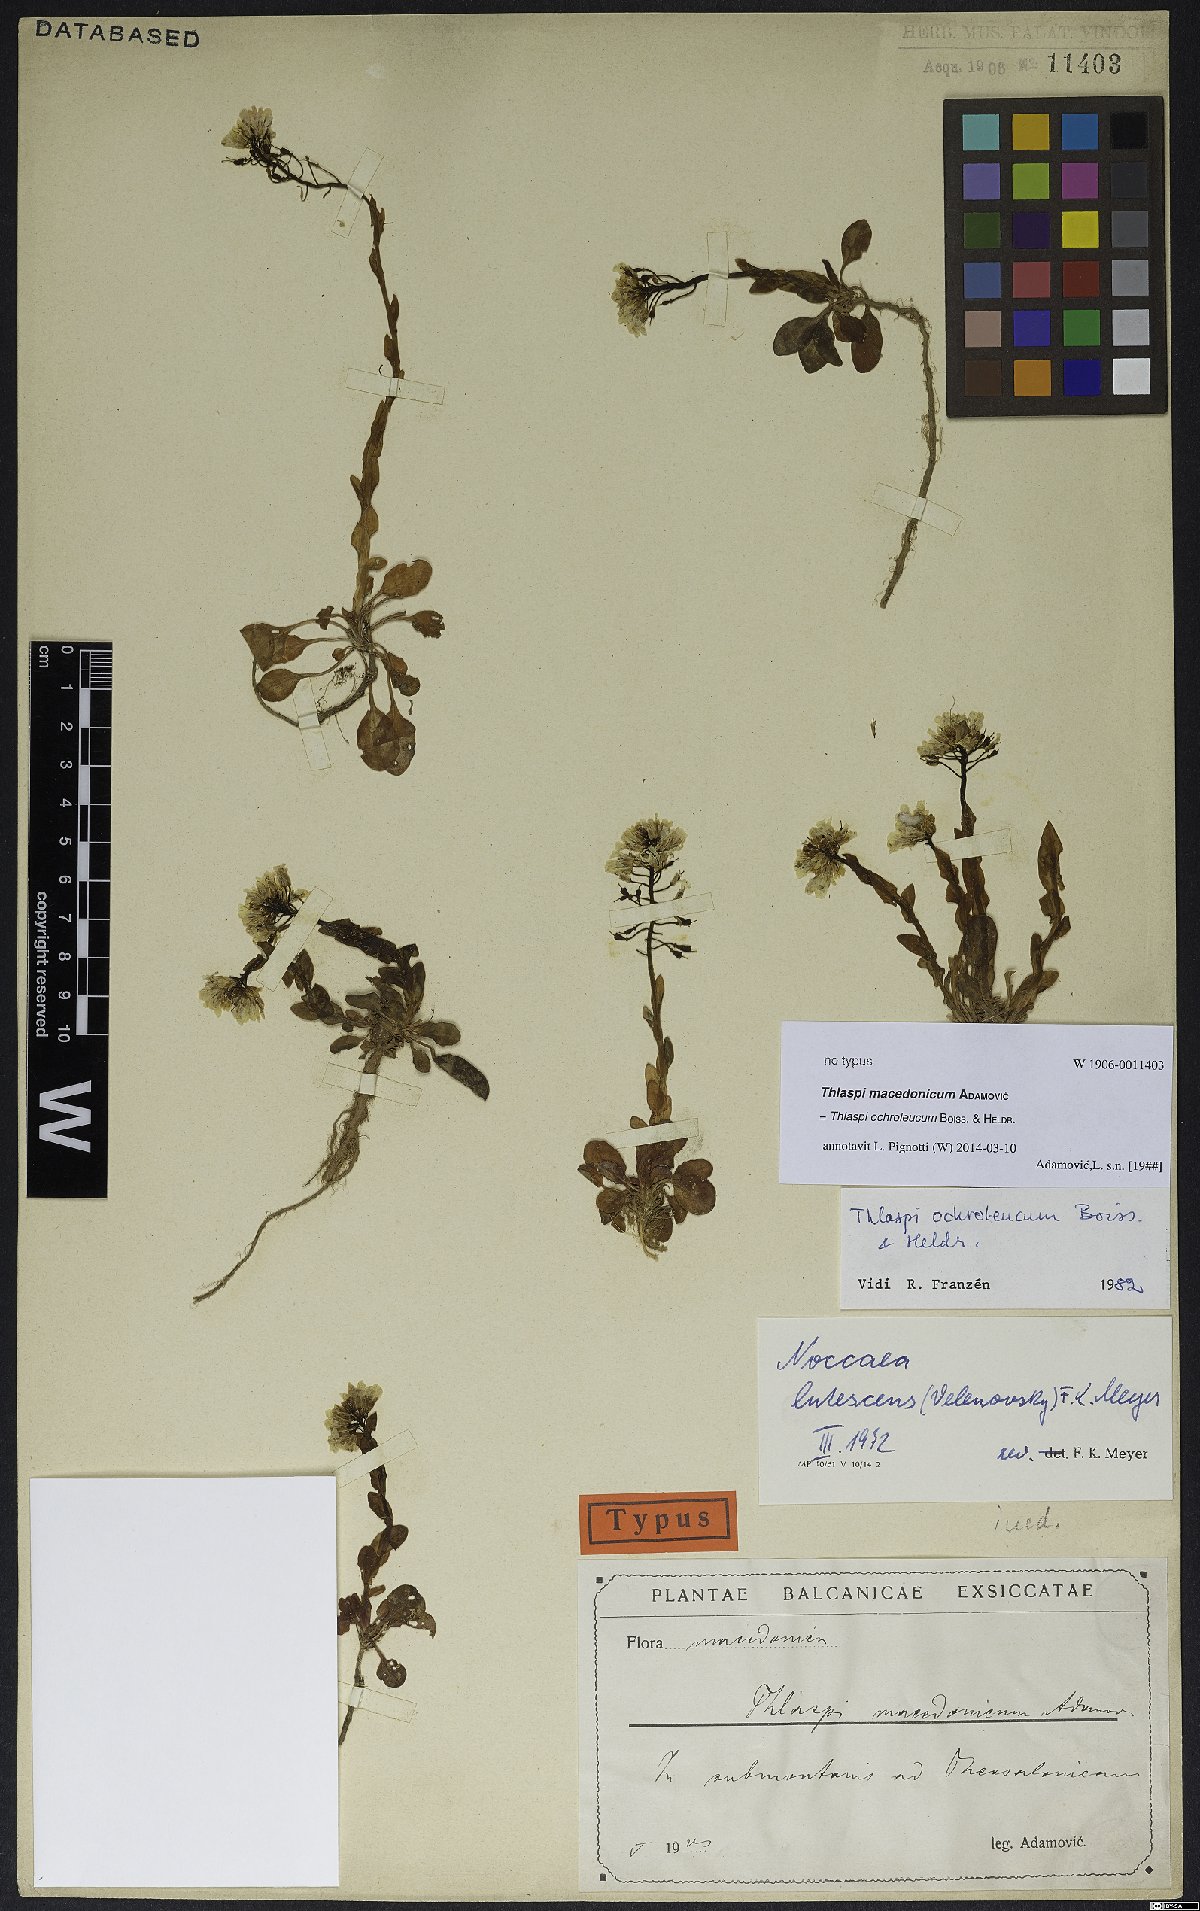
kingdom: Plantae
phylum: Tracheophyta
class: Magnoliopsida
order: Brassicales
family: Brassicaceae
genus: Noccaea
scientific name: Noccaea ochroleuca
